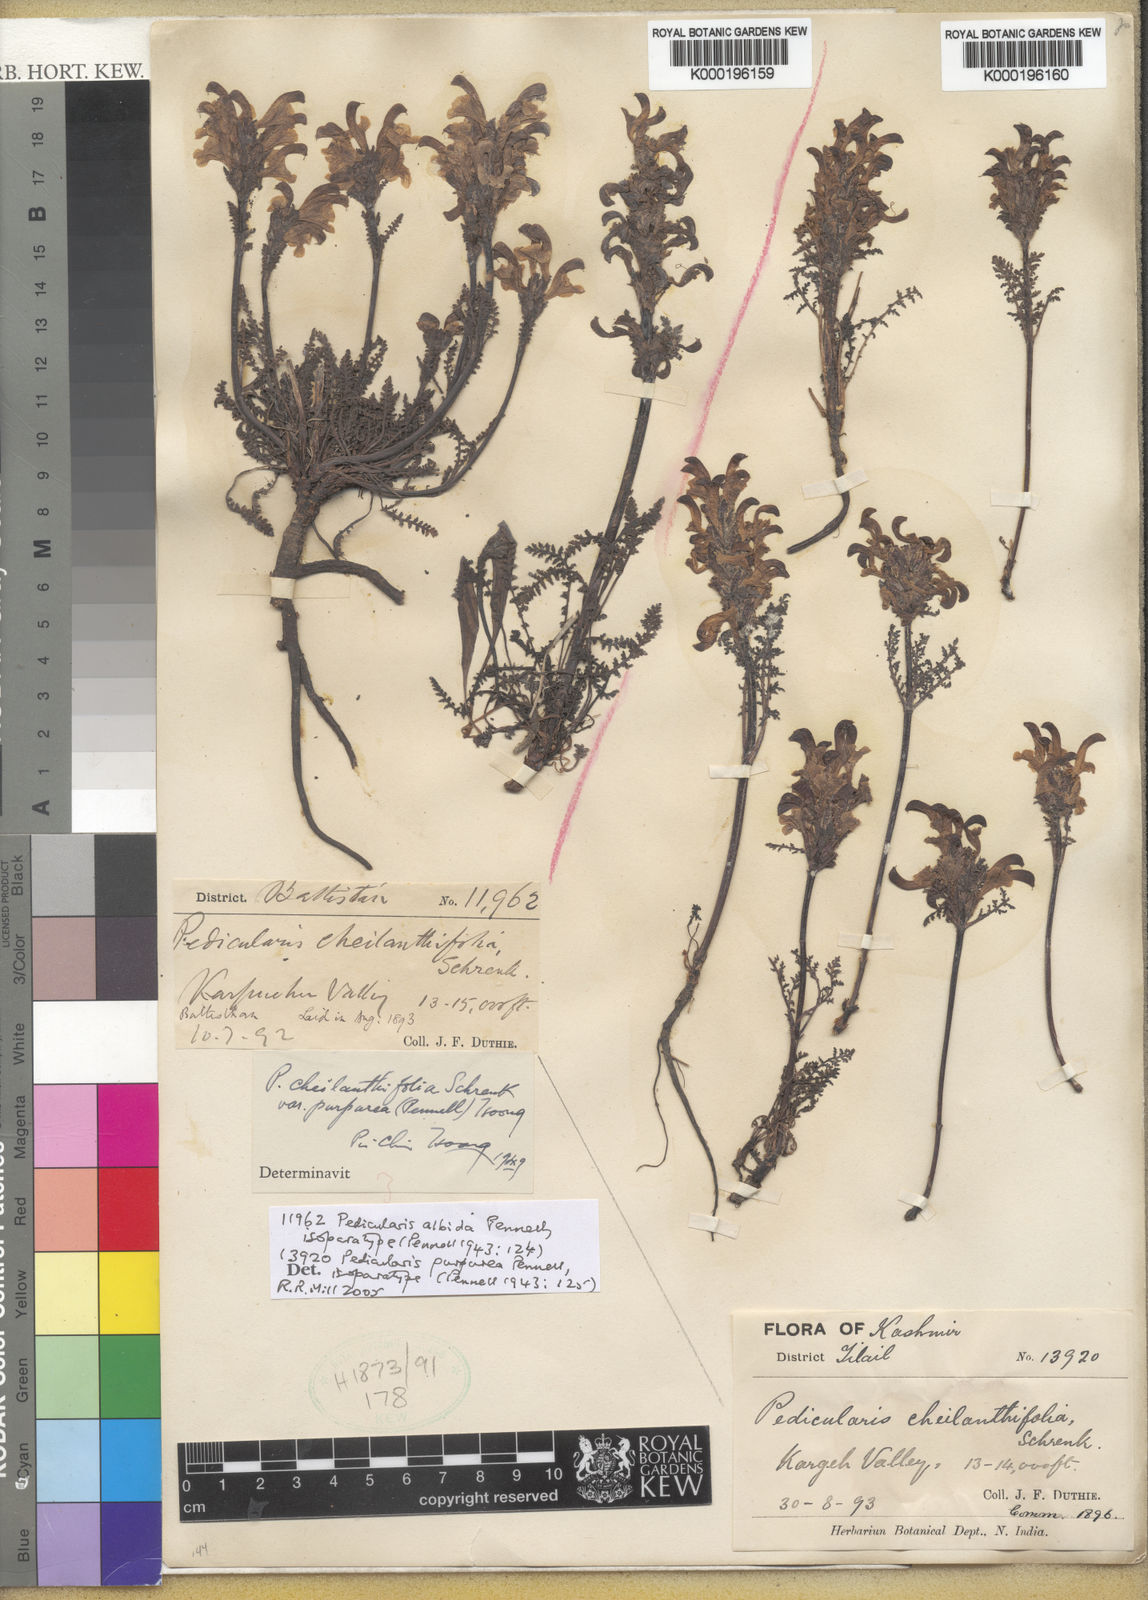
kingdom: Plantae
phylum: Tracheophyta
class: Magnoliopsida
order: Lamiales
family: Orobanchaceae
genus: Pedicularis
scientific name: Pedicularis albida
